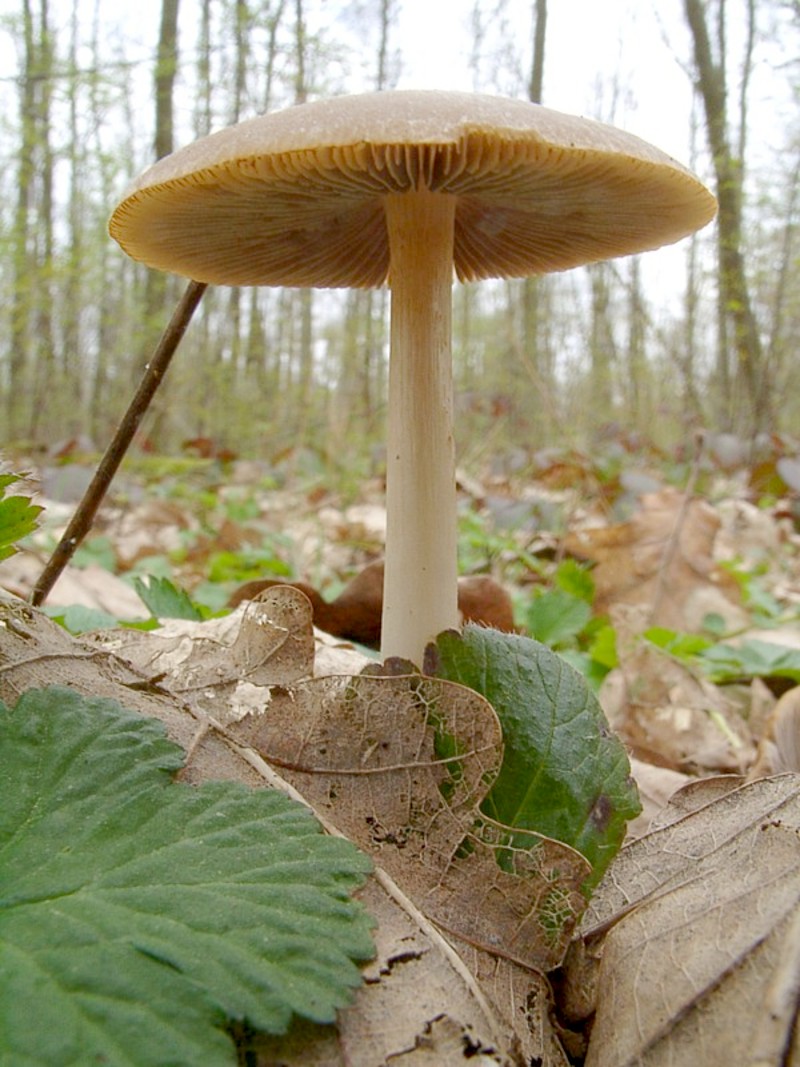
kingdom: Fungi
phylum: Basidiomycota
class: Agaricomycetes
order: Agaricales
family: Psathyrellaceae
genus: Psathyrella
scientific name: Psathyrella spadiceogrisea
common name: Spring brittlestem
